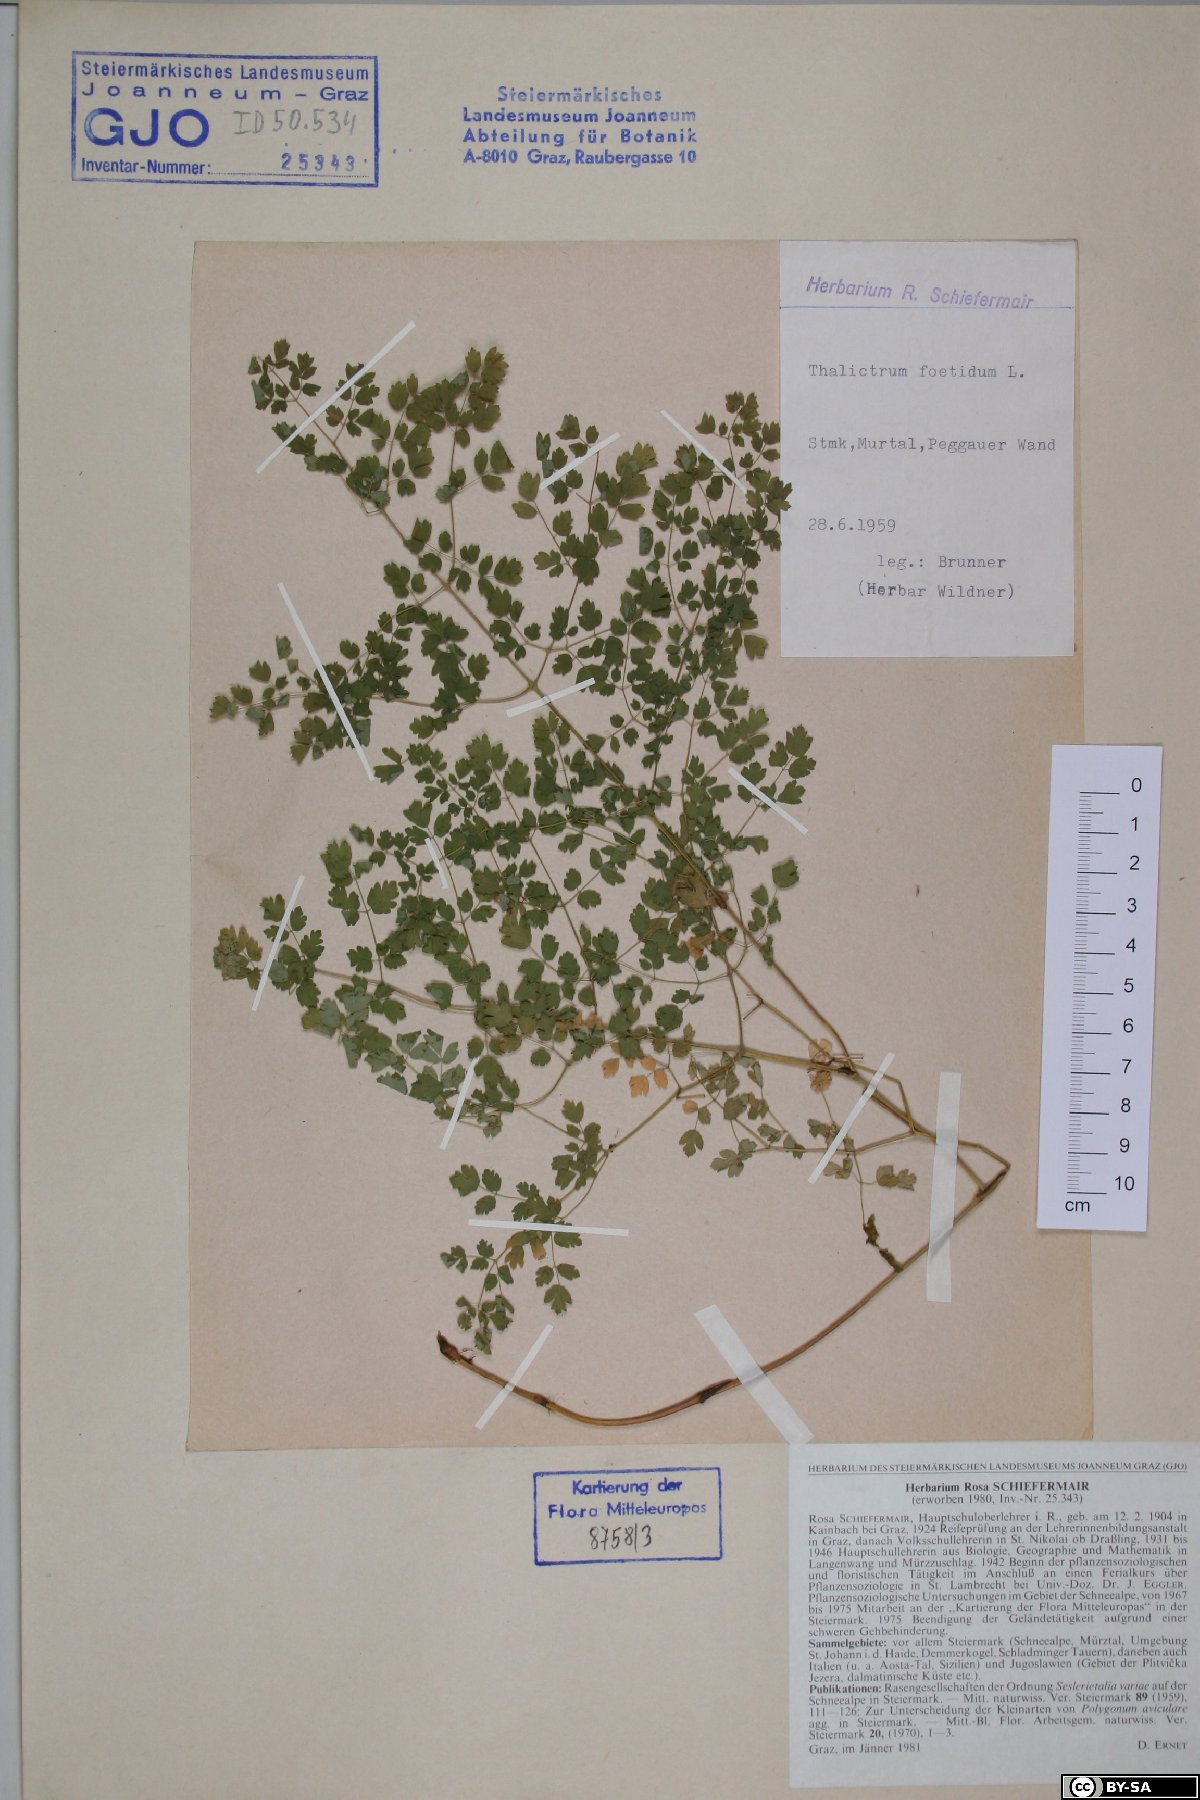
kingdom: Plantae
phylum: Tracheophyta
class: Magnoliopsida
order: Ranunculales
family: Ranunculaceae
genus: Thalictrum
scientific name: Thalictrum foetidum
